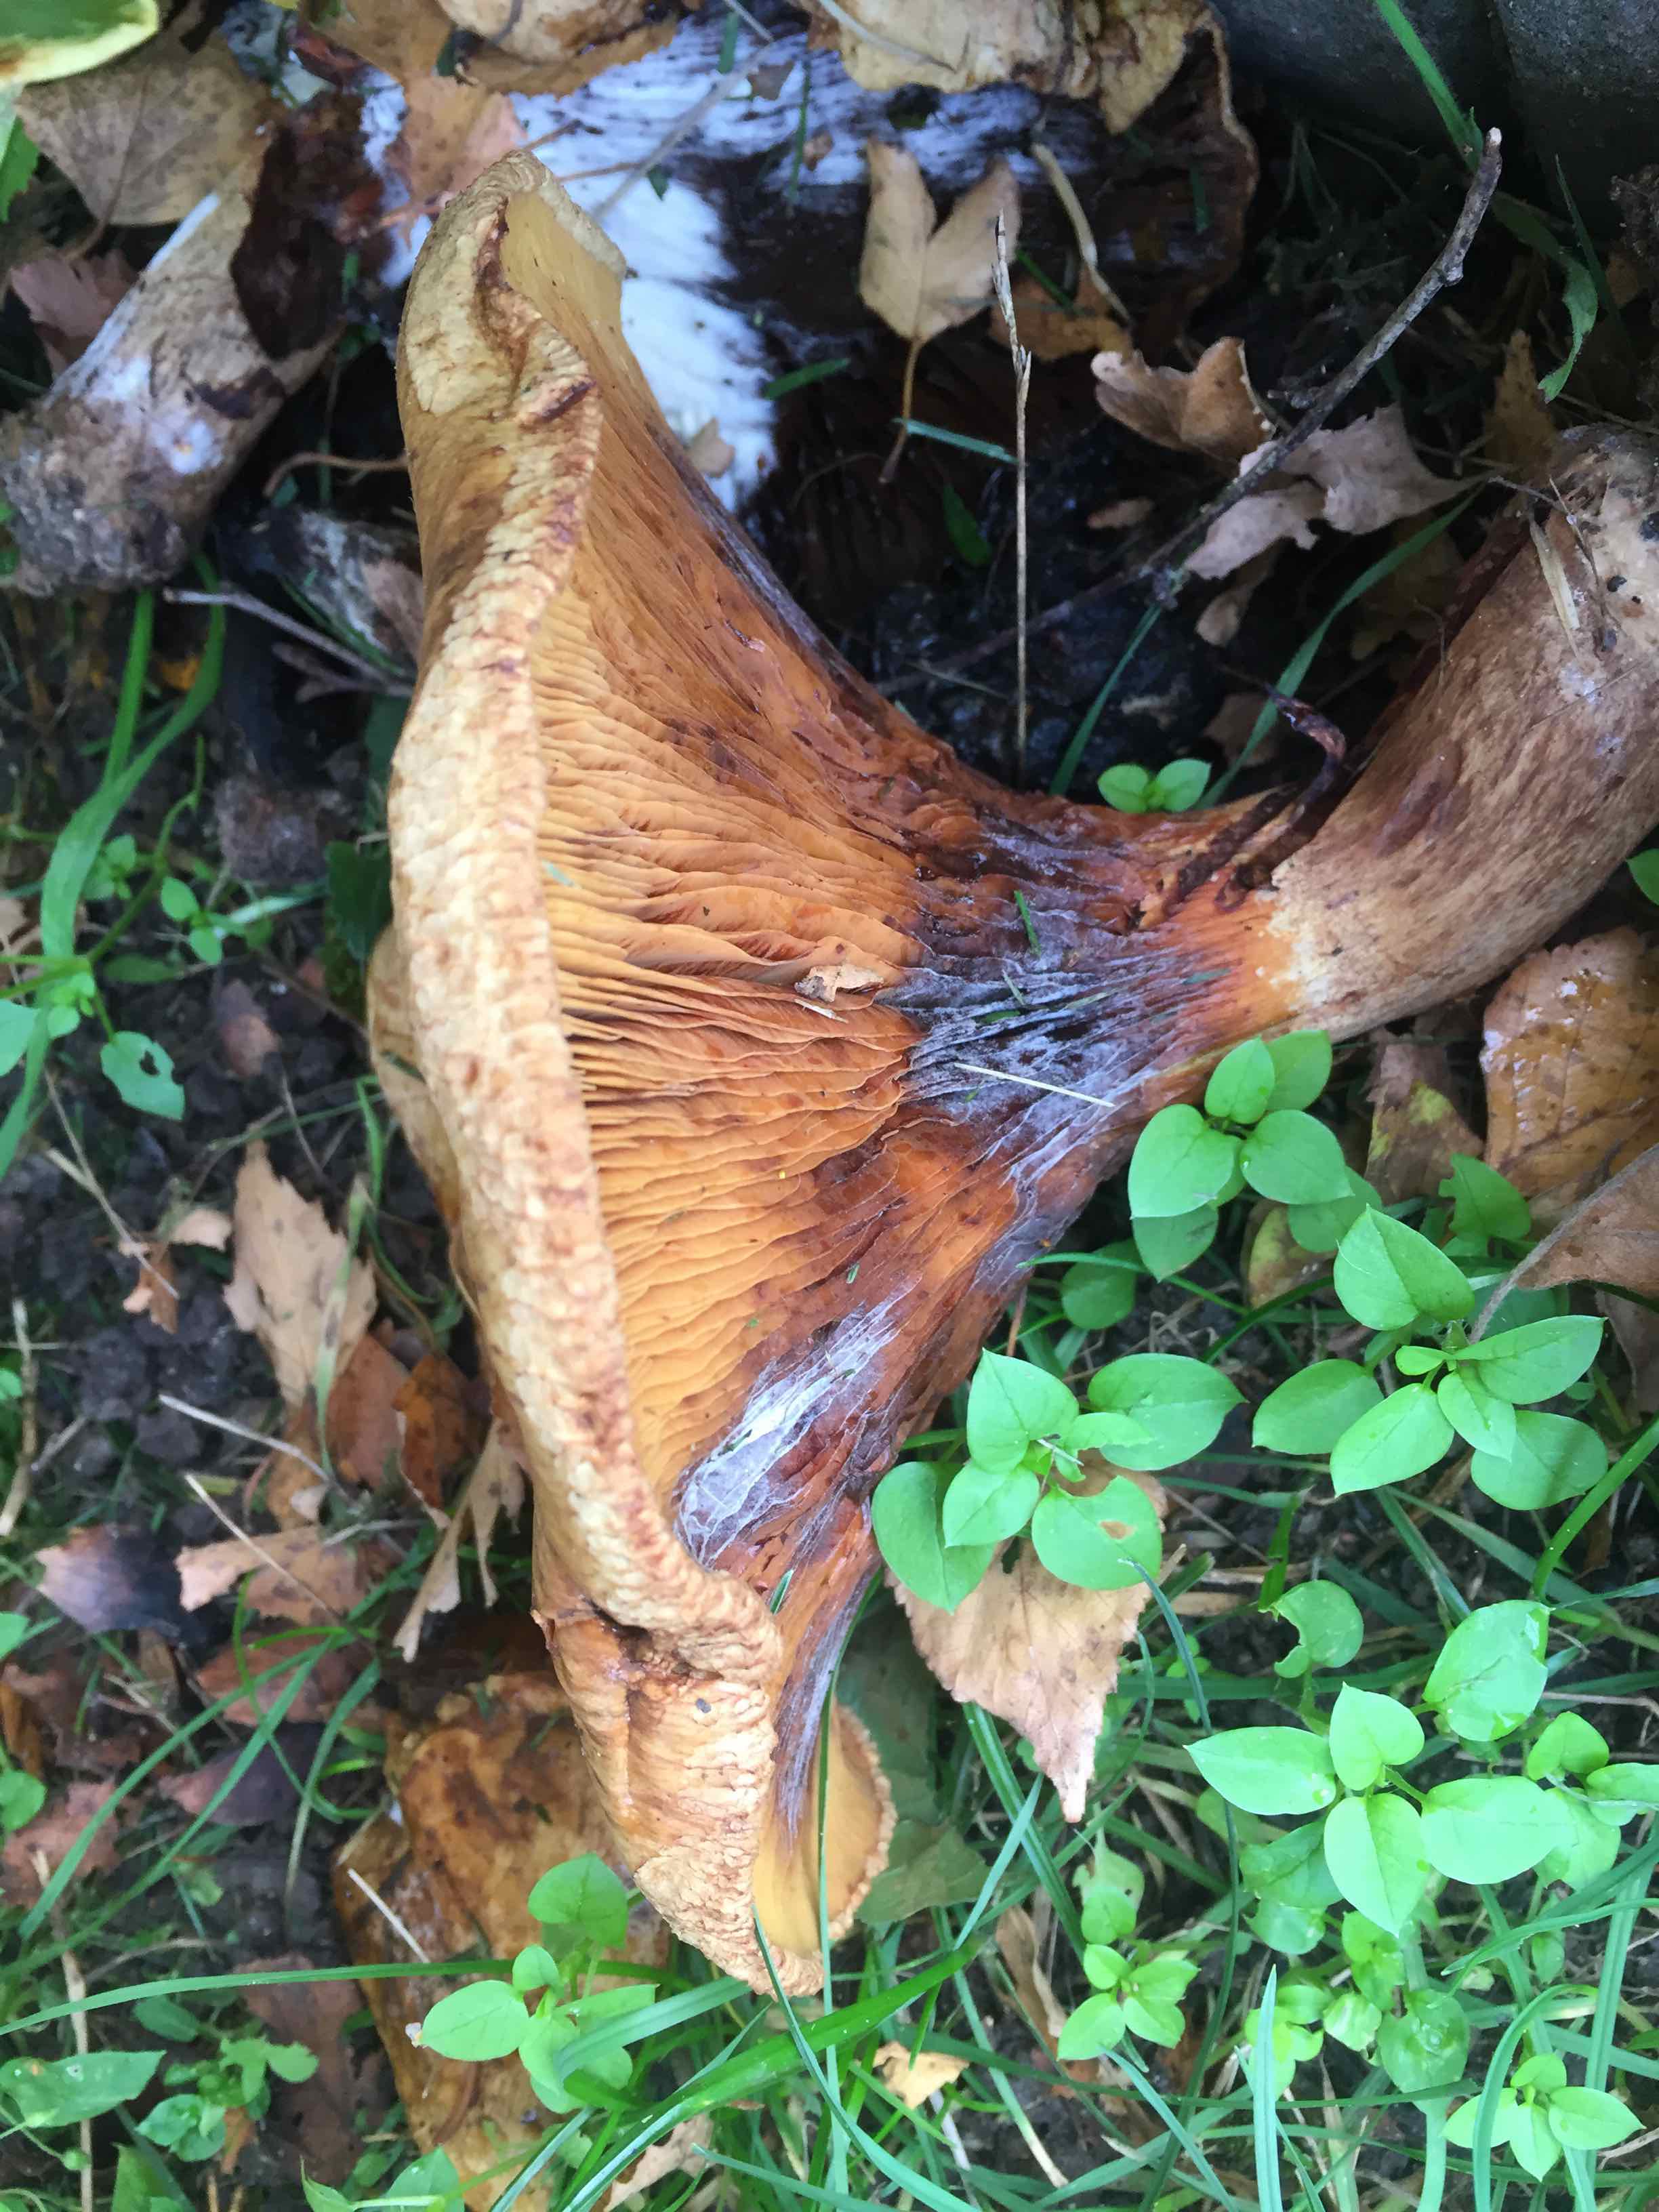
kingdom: Fungi
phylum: Basidiomycota
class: Agaricomycetes
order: Boletales
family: Paxillaceae
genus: Paxillus
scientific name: Paxillus
